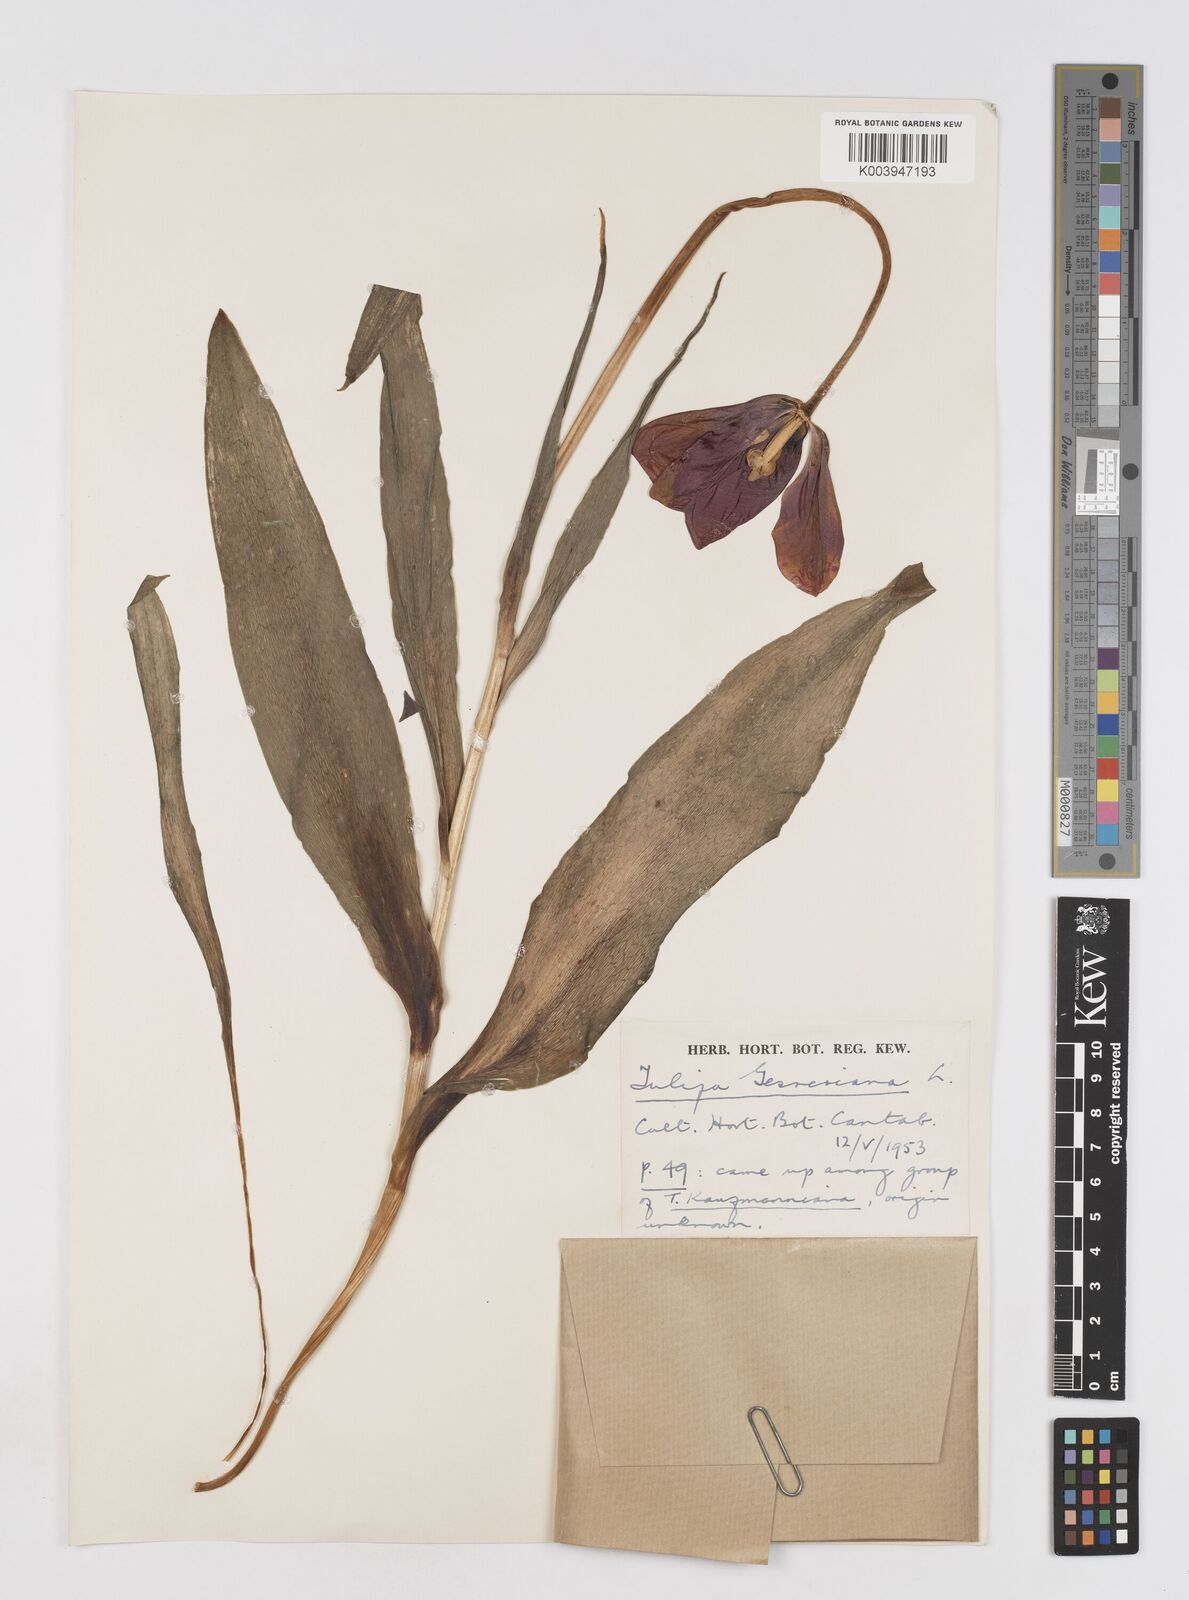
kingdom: Plantae
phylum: Tracheophyta
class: Liliopsida
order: Liliales
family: Liliaceae
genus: Tulipa
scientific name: Tulipa gesneriana
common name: Garden tulip
